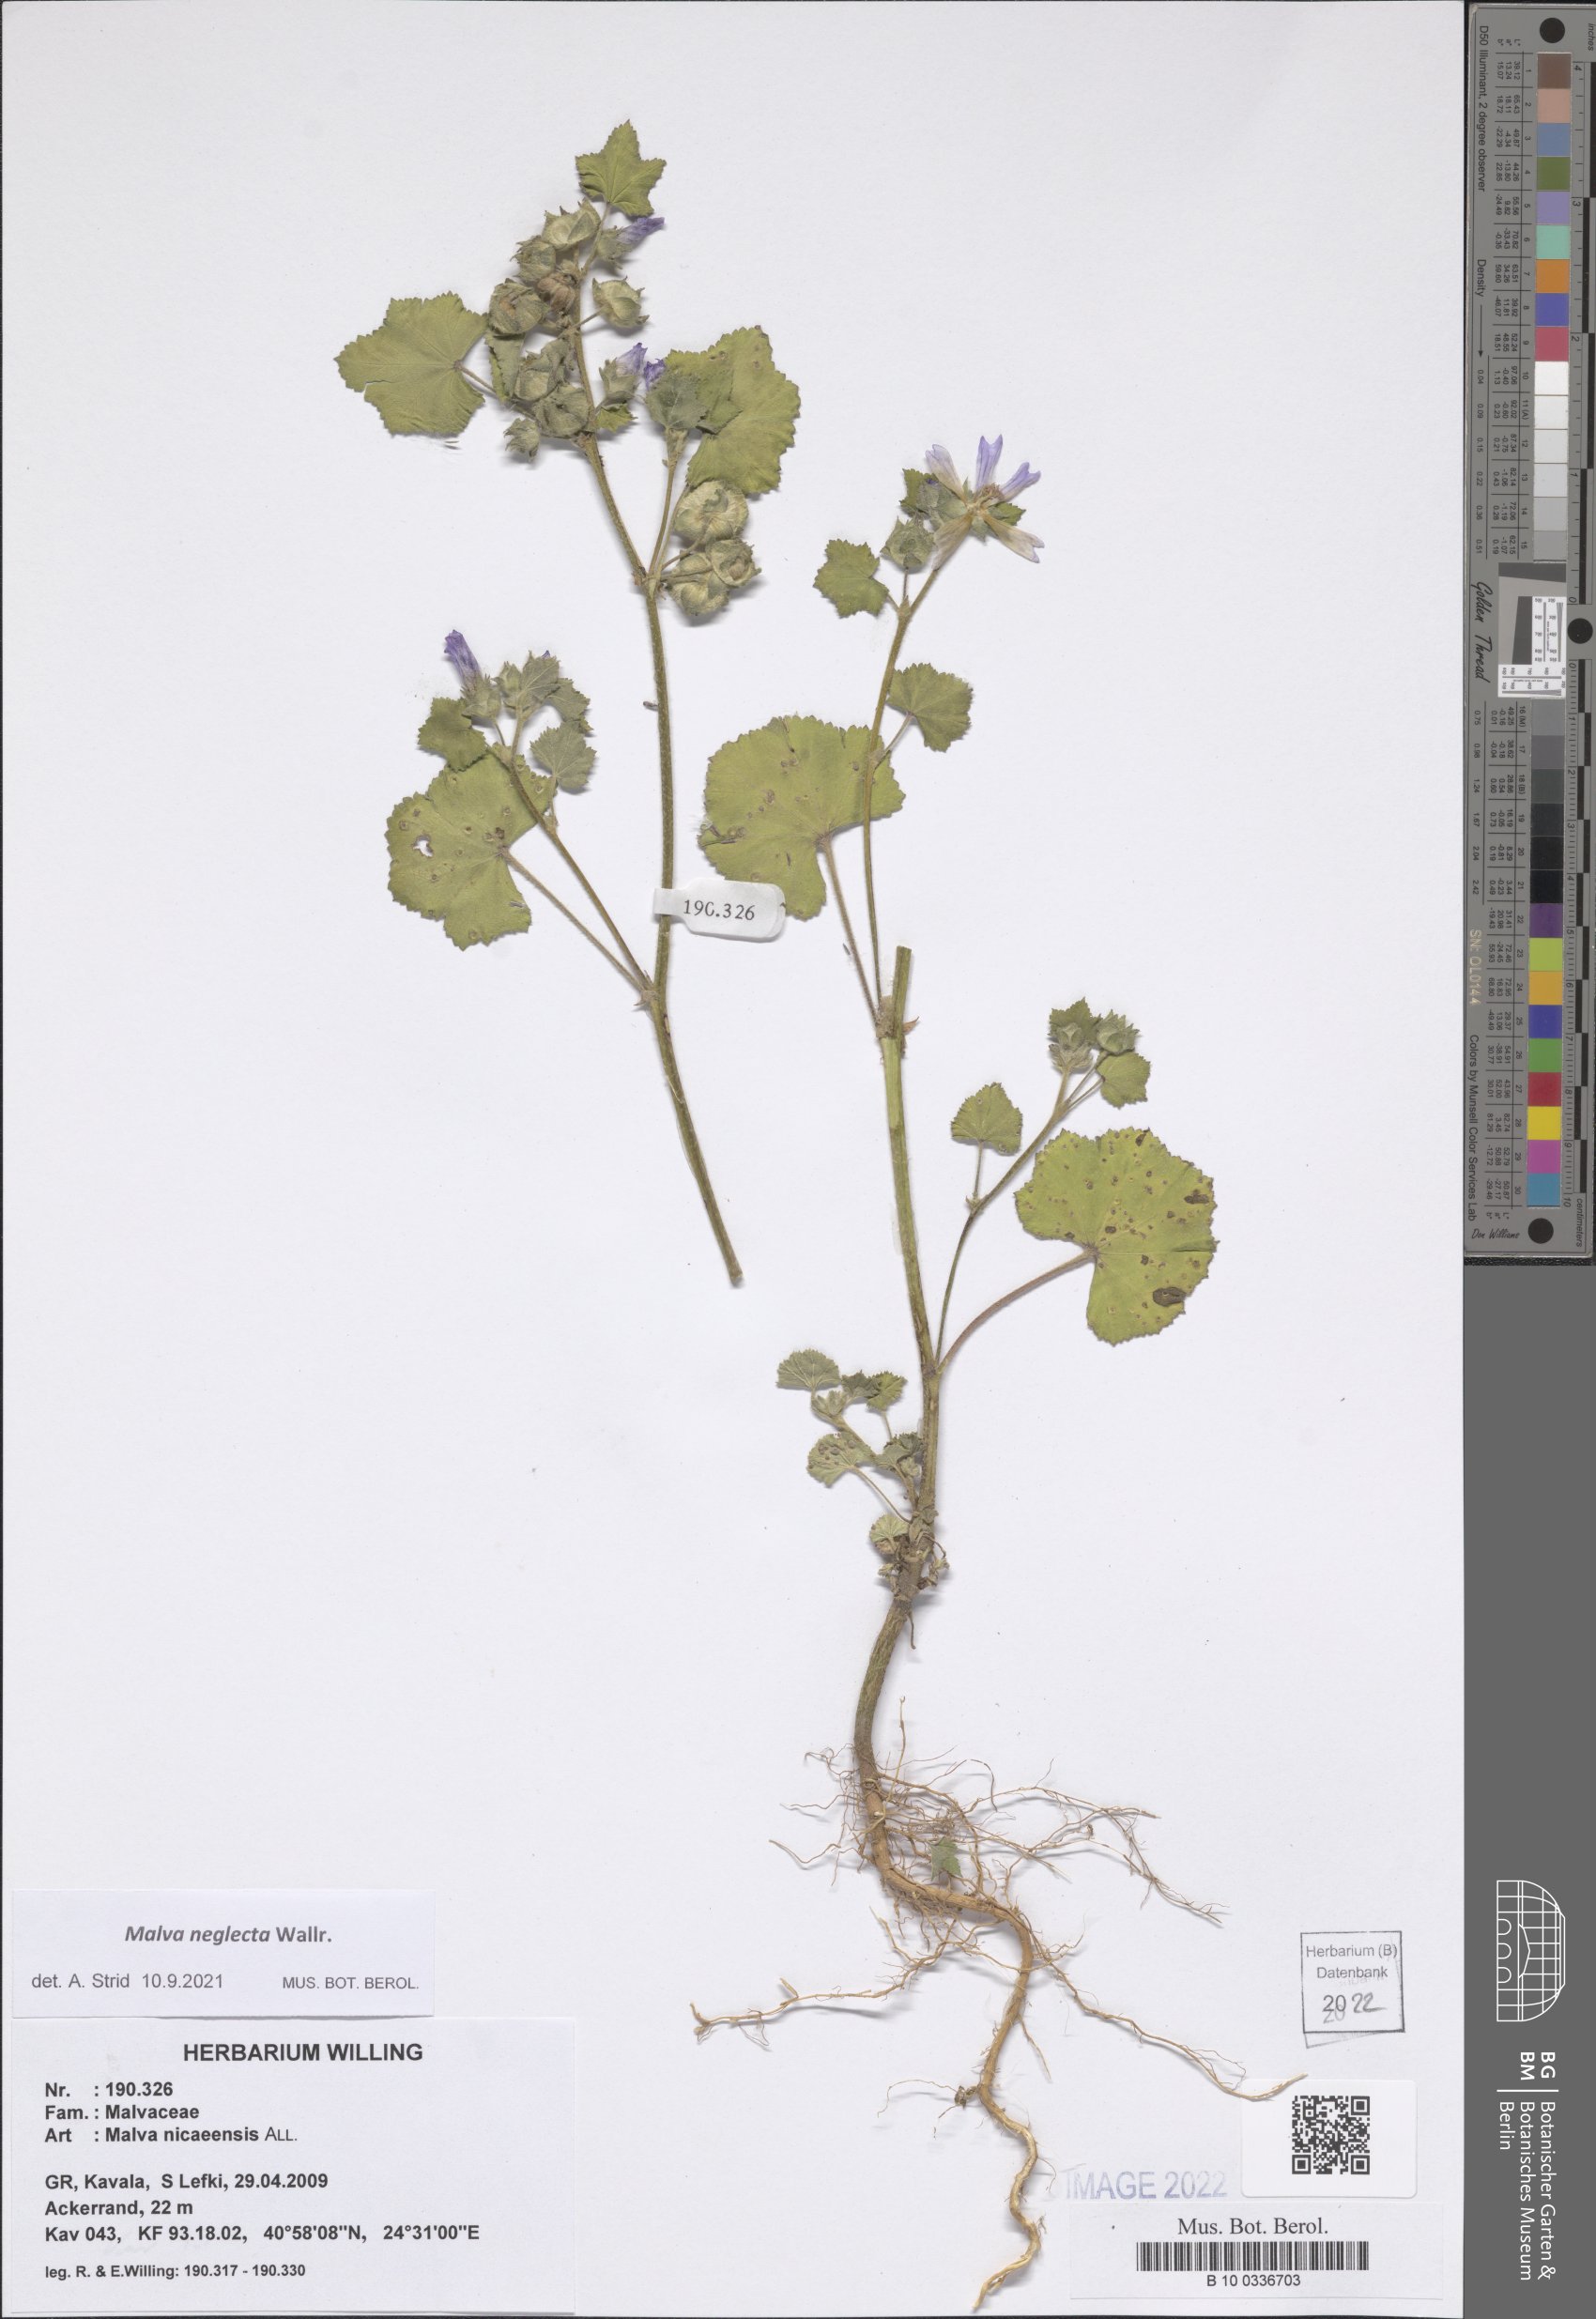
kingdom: Plantae
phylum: Tracheophyta
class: Magnoliopsida
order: Malvales
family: Malvaceae
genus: Malva
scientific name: Malva neglecta
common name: Common mallow
